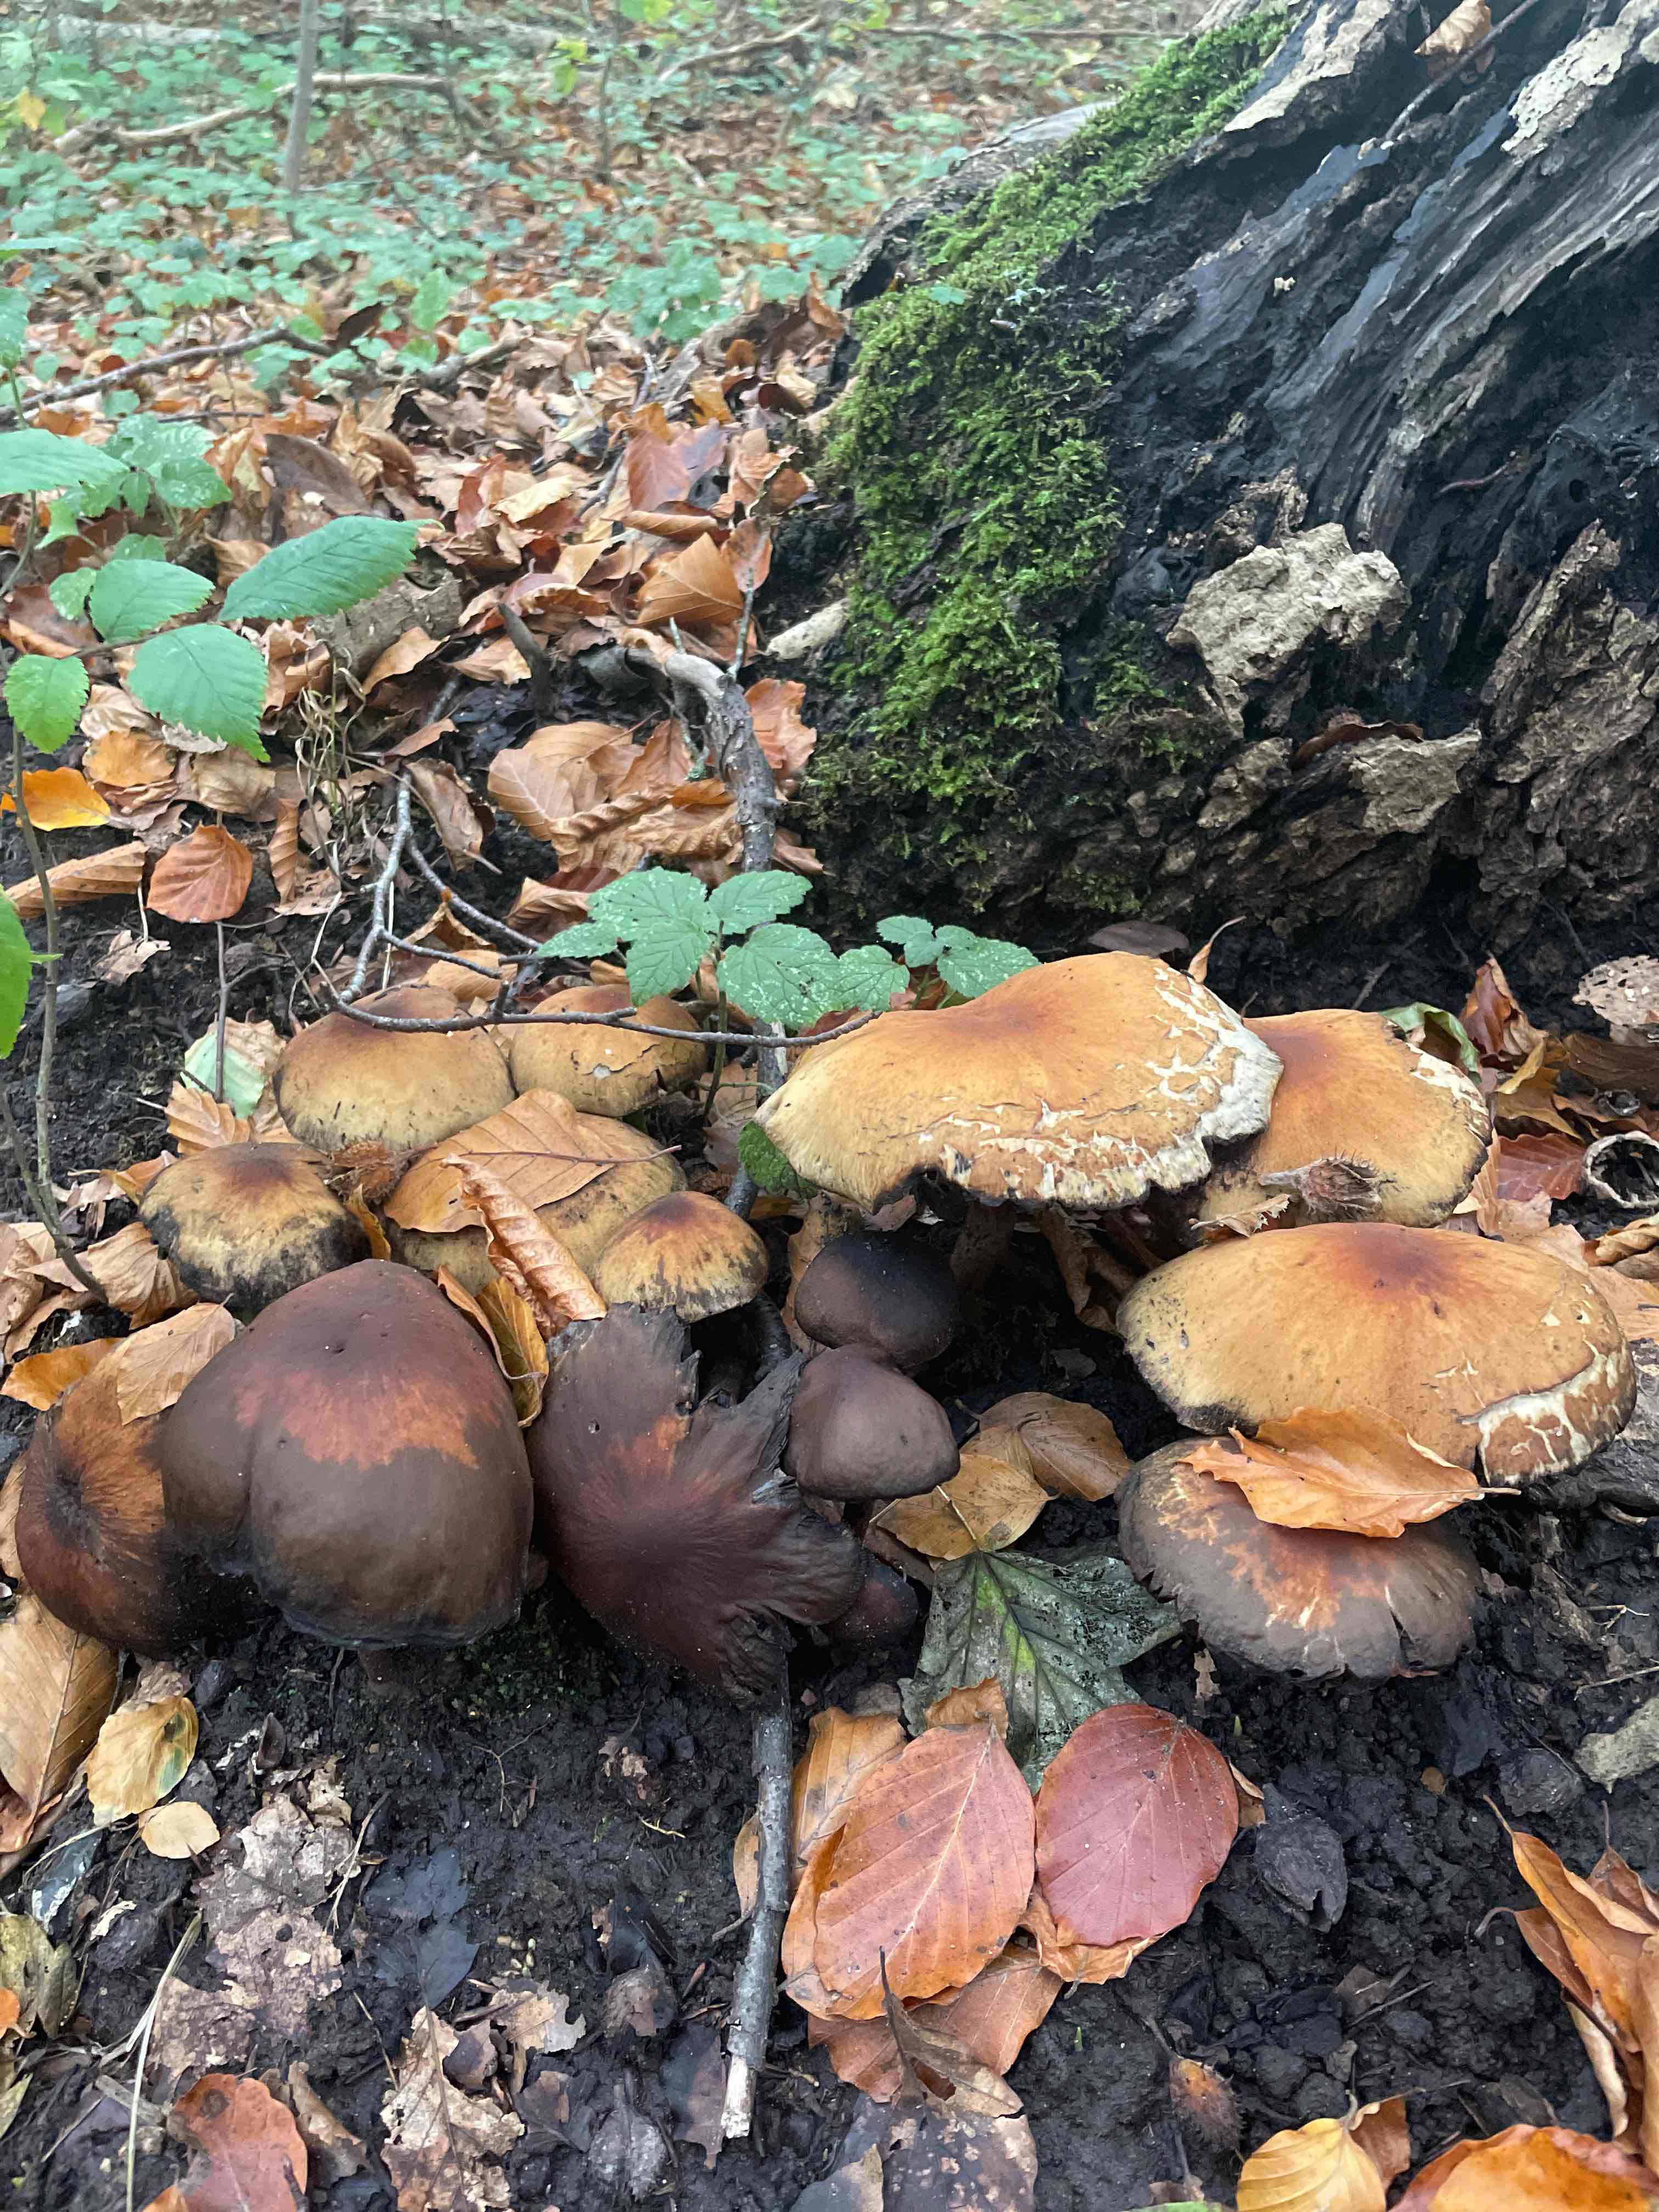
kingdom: Fungi
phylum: Basidiomycota
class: Agaricomycetes
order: Agaricales
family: Strophariaceae
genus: Hypholoma
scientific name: Hypholoma fasciculare
